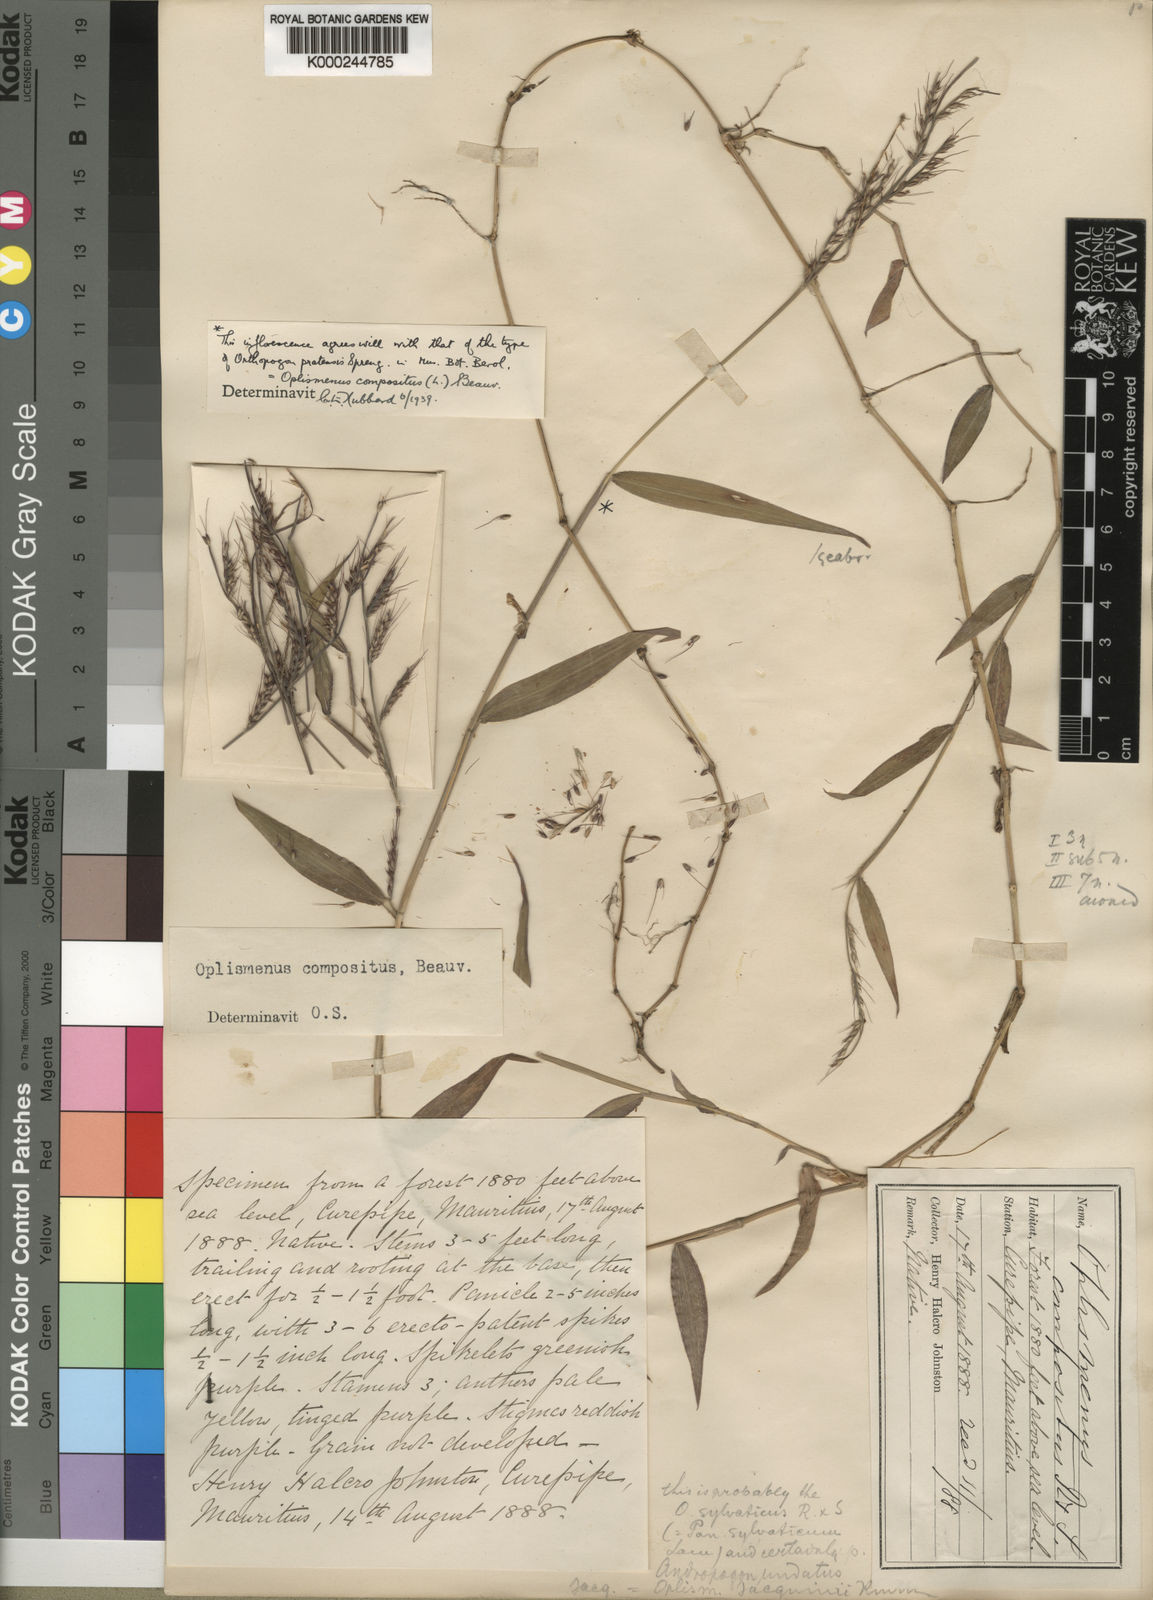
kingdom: Plantae
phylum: Tracheophyta
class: Liliopsida
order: Poales
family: Poaceae
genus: Oplismenus
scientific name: Oplismenus compositus
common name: Running mountain grass
